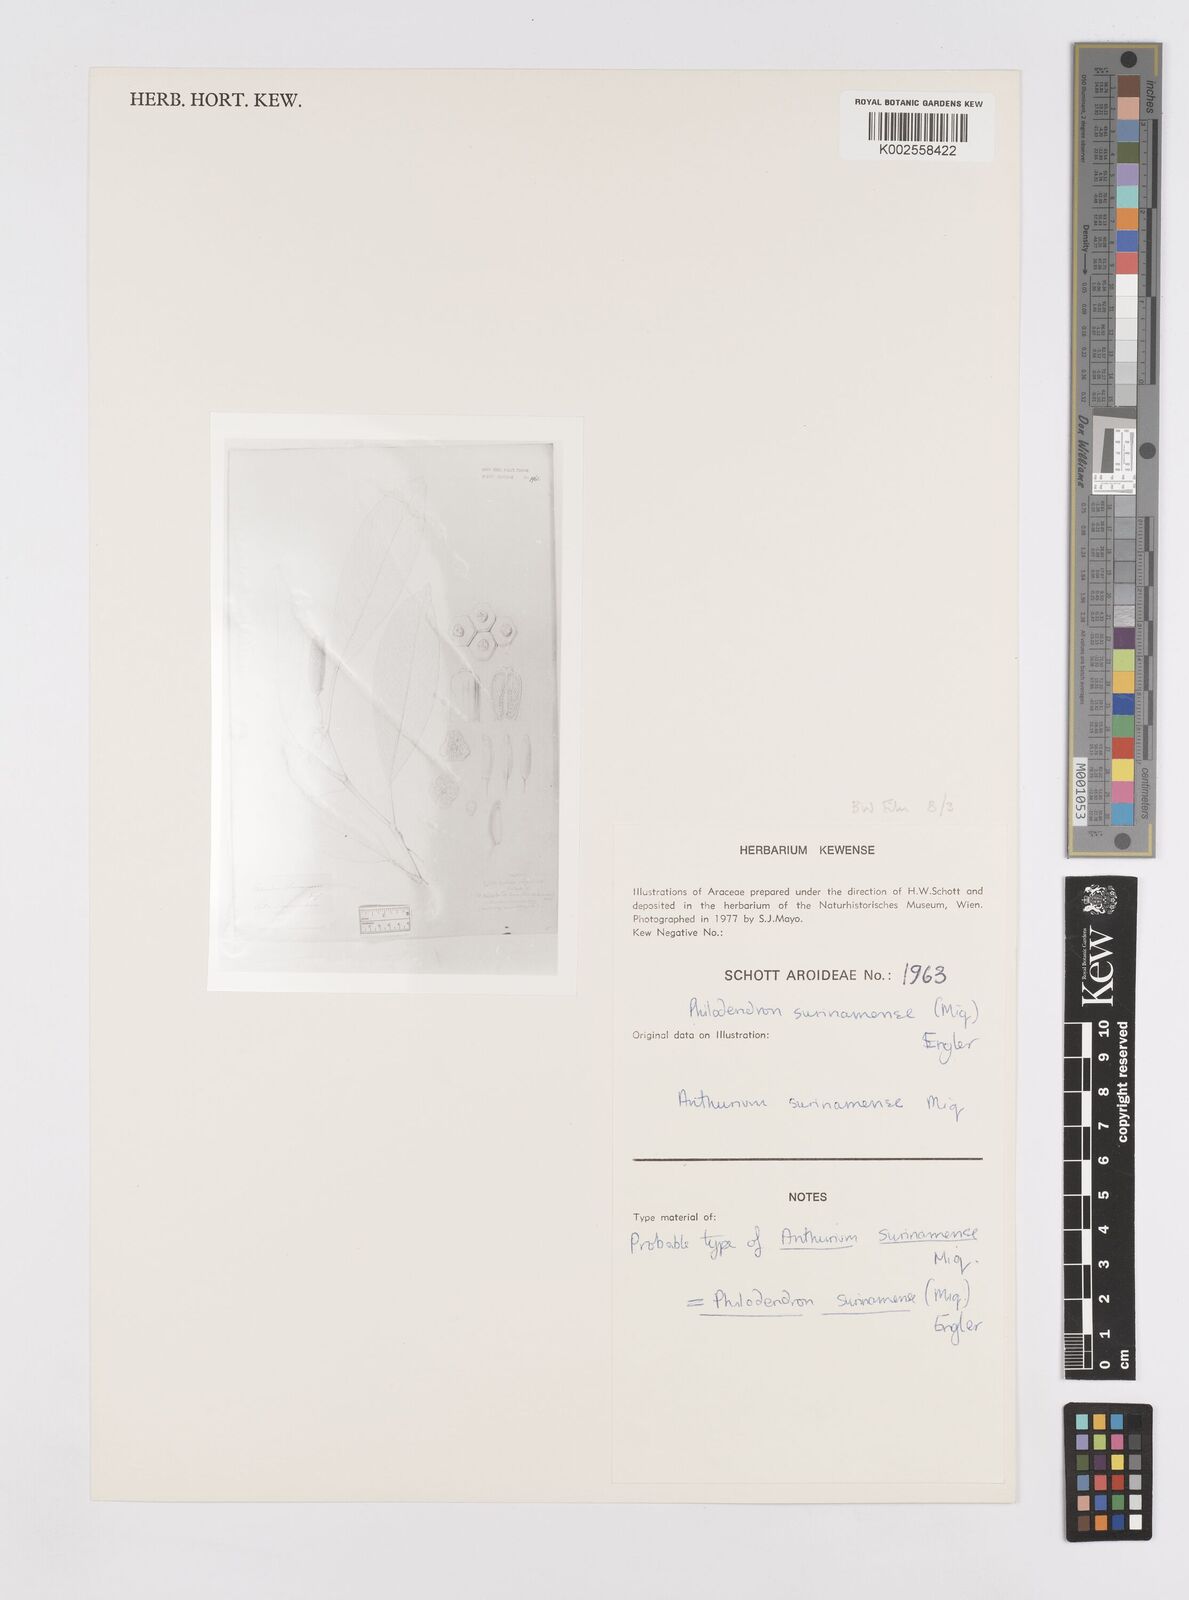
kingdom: Plantae
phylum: Tracheophyta
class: Liliopsida
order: Alismatales
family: Araceae
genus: Philodendron
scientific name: Philodendron surinamense
